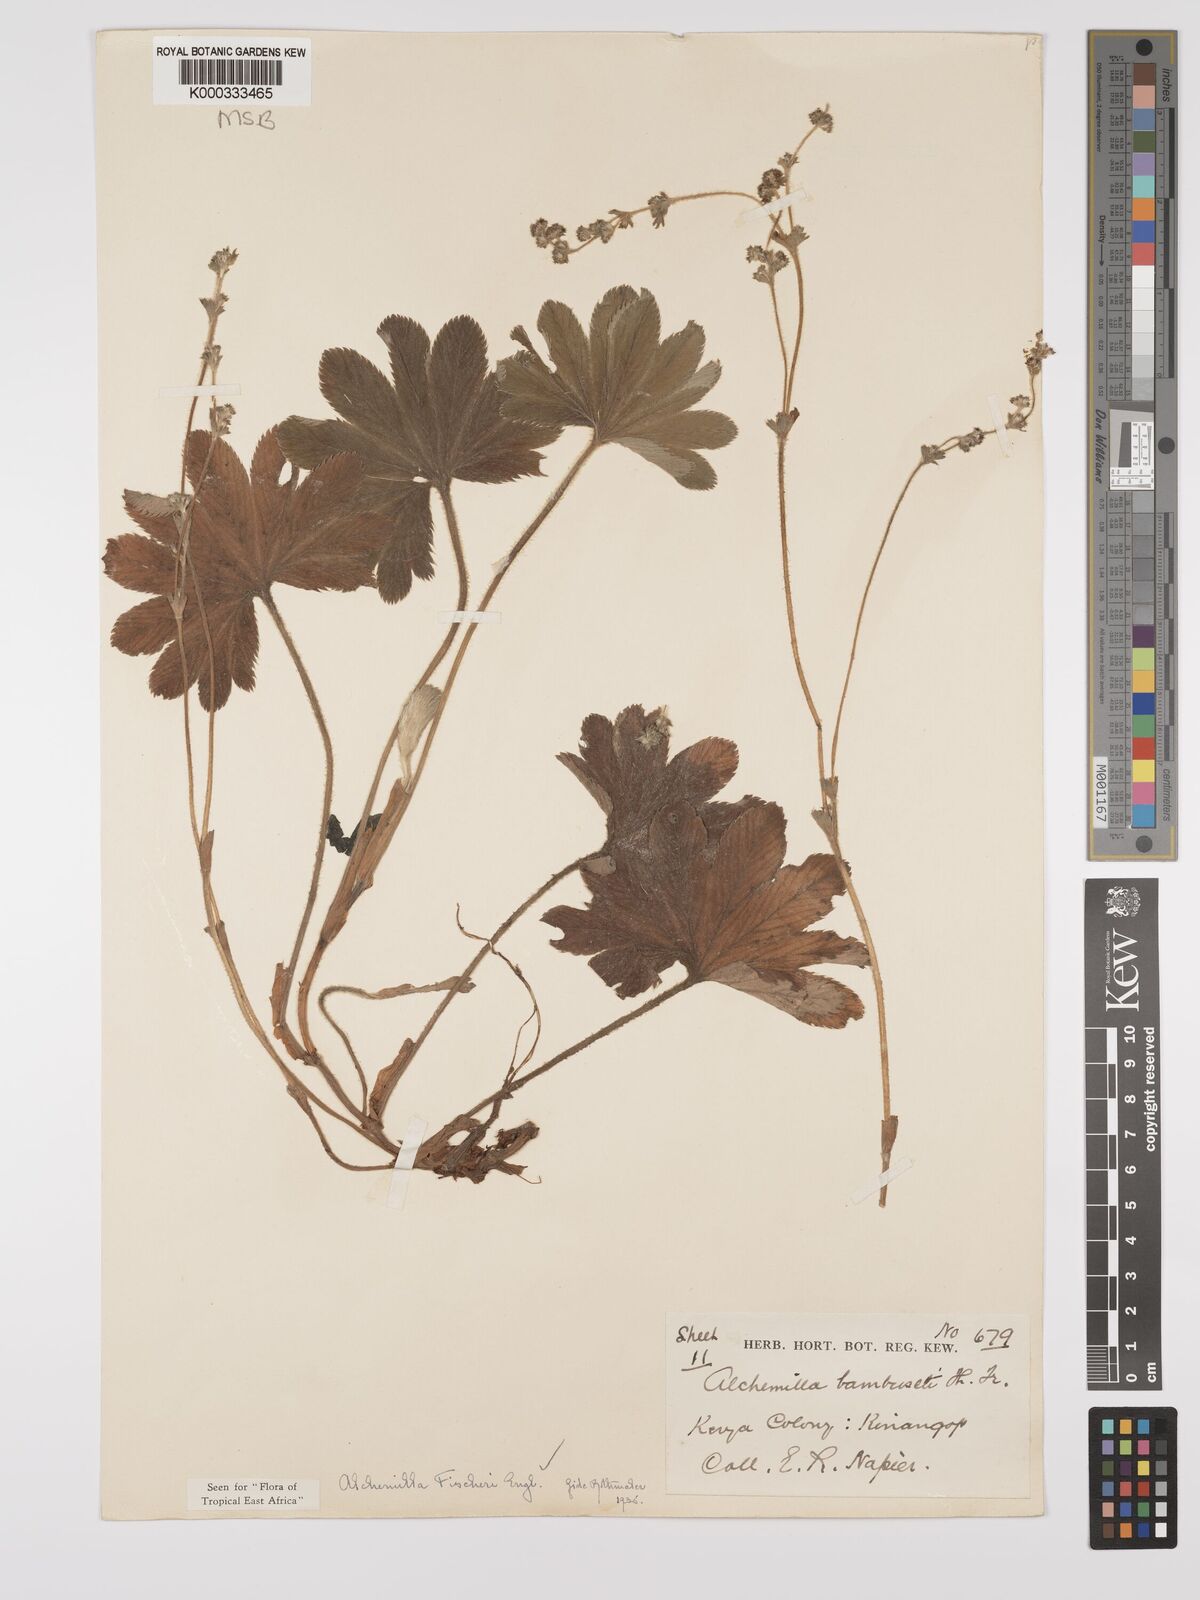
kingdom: Plantae
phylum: Tracheophyta
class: Magnoliopsida
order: Rosales
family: Rosaceae
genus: Alchemilla
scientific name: Alchemilla fischeri
